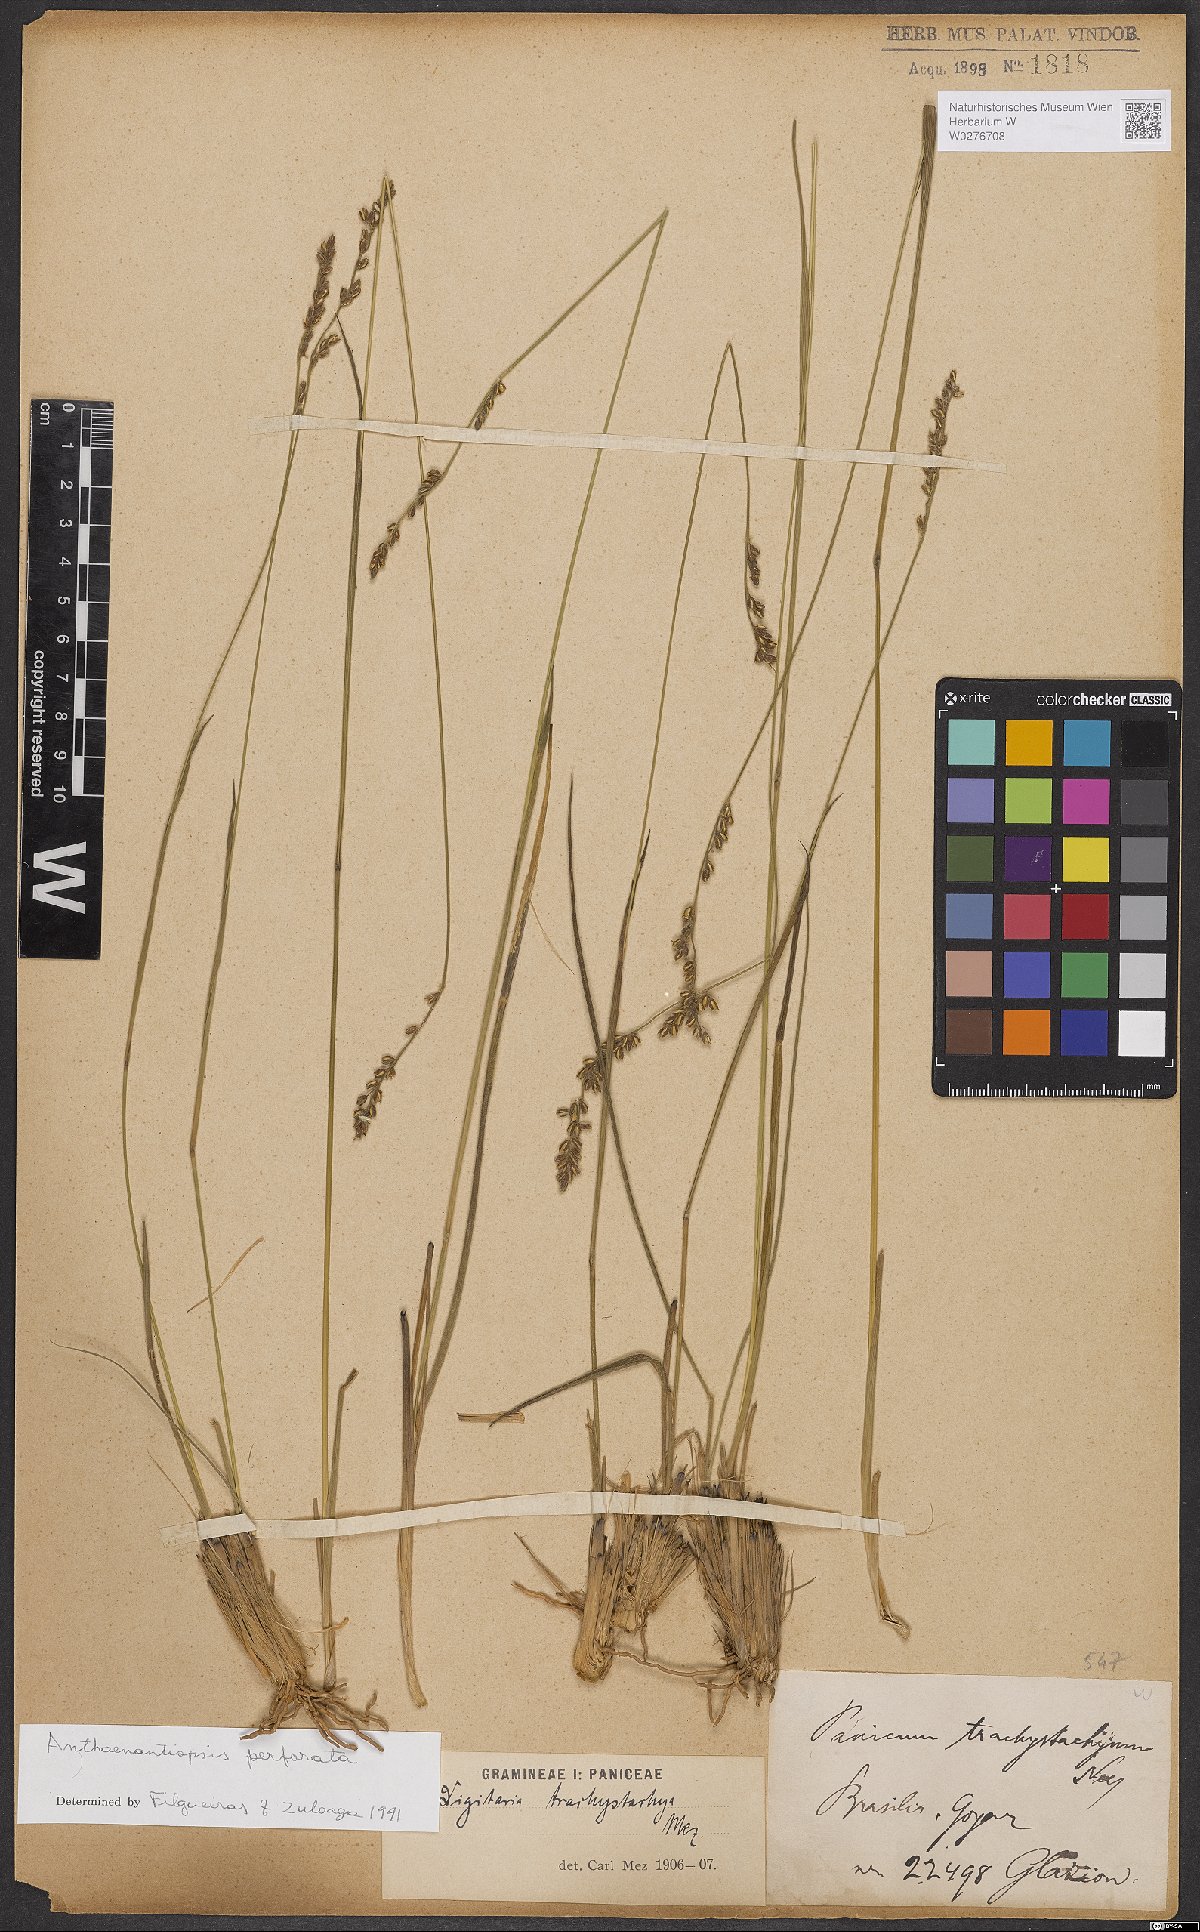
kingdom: Plantae
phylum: Tracheophyta
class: Liliopsida
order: Poales
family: Poaceae
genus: Anthaenantiopsis
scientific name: Anthaenantiopsis perforata
